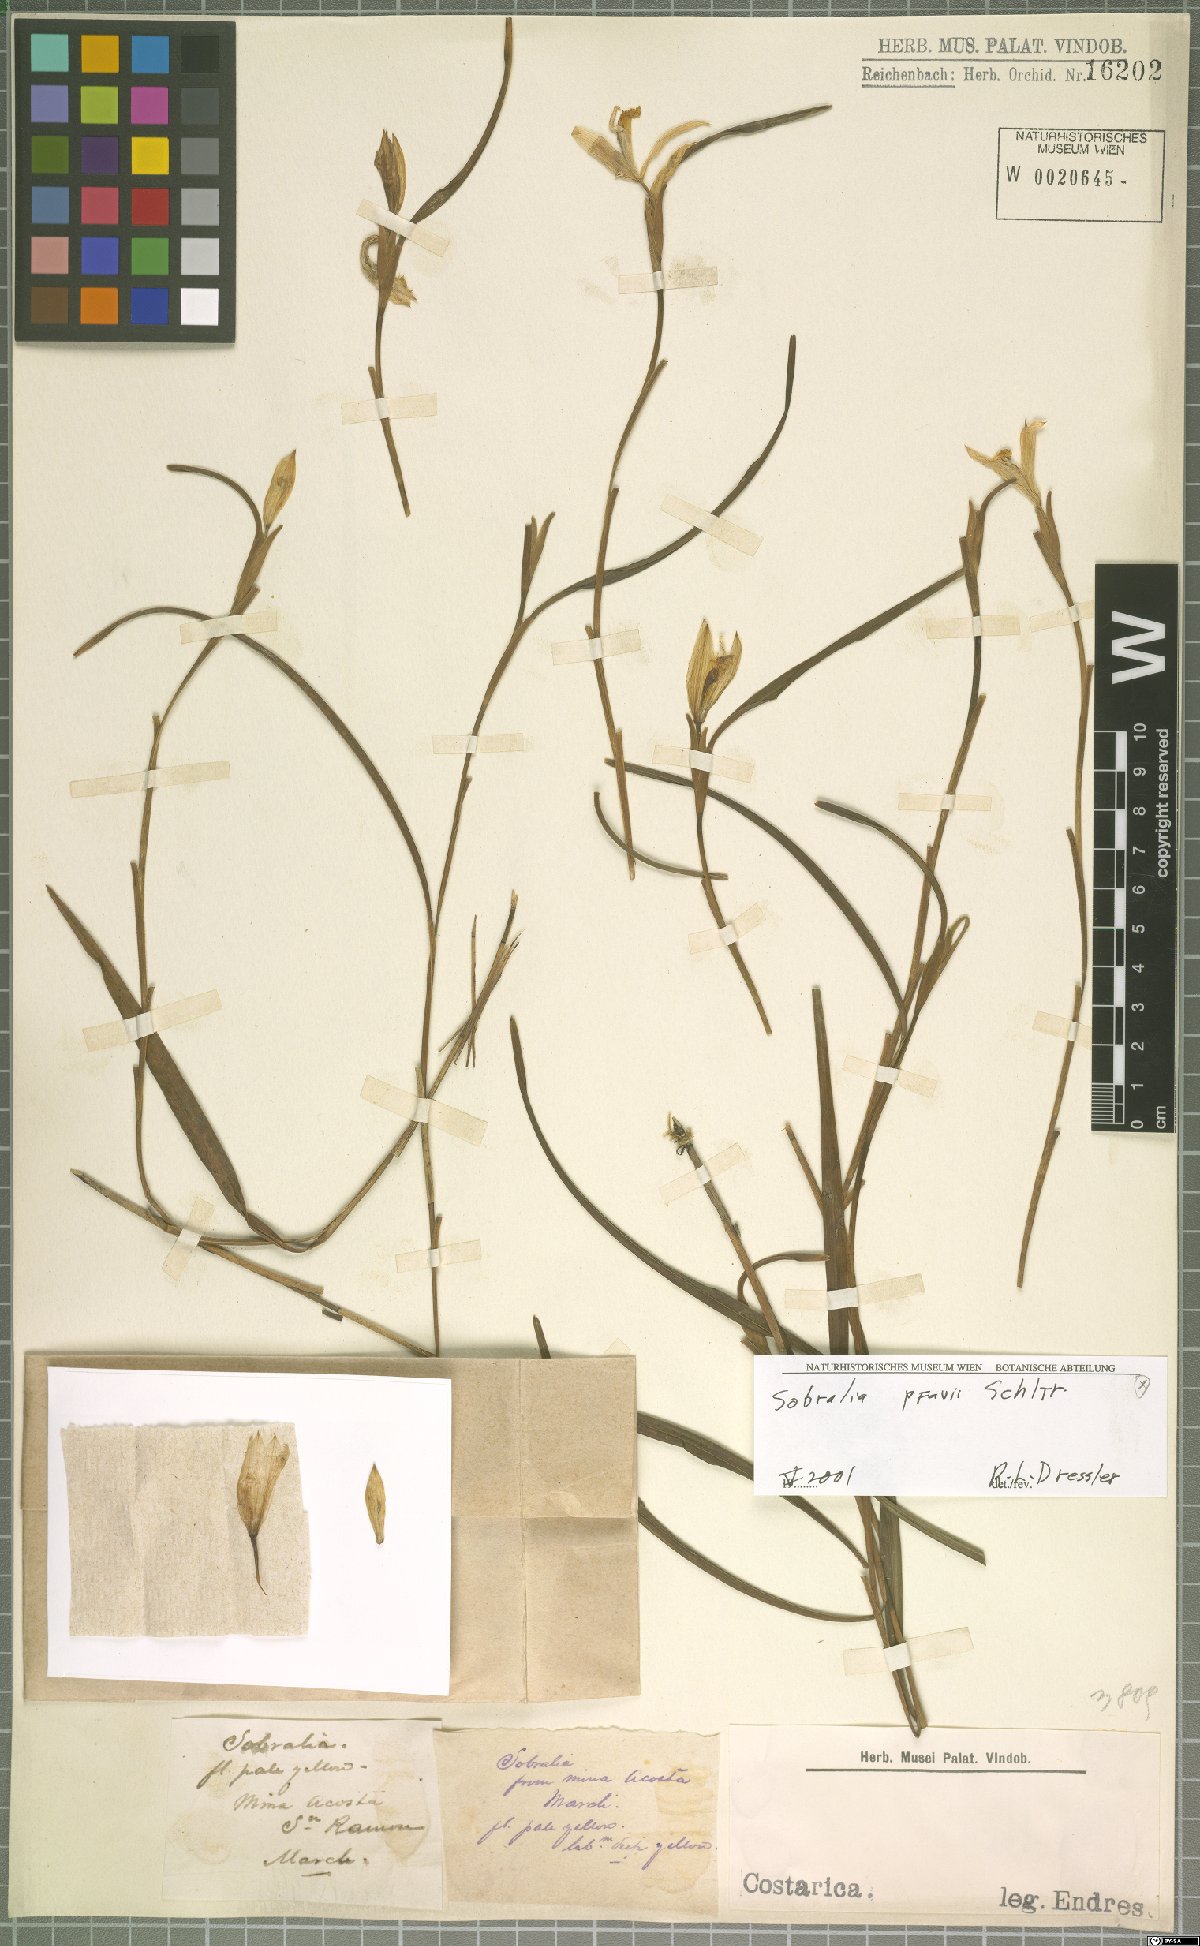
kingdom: Plantae
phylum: Tracheophyta
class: Liliopsida
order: Asparagales
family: Orchidaceae
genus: Sobralia
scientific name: Sobralia pfavii
